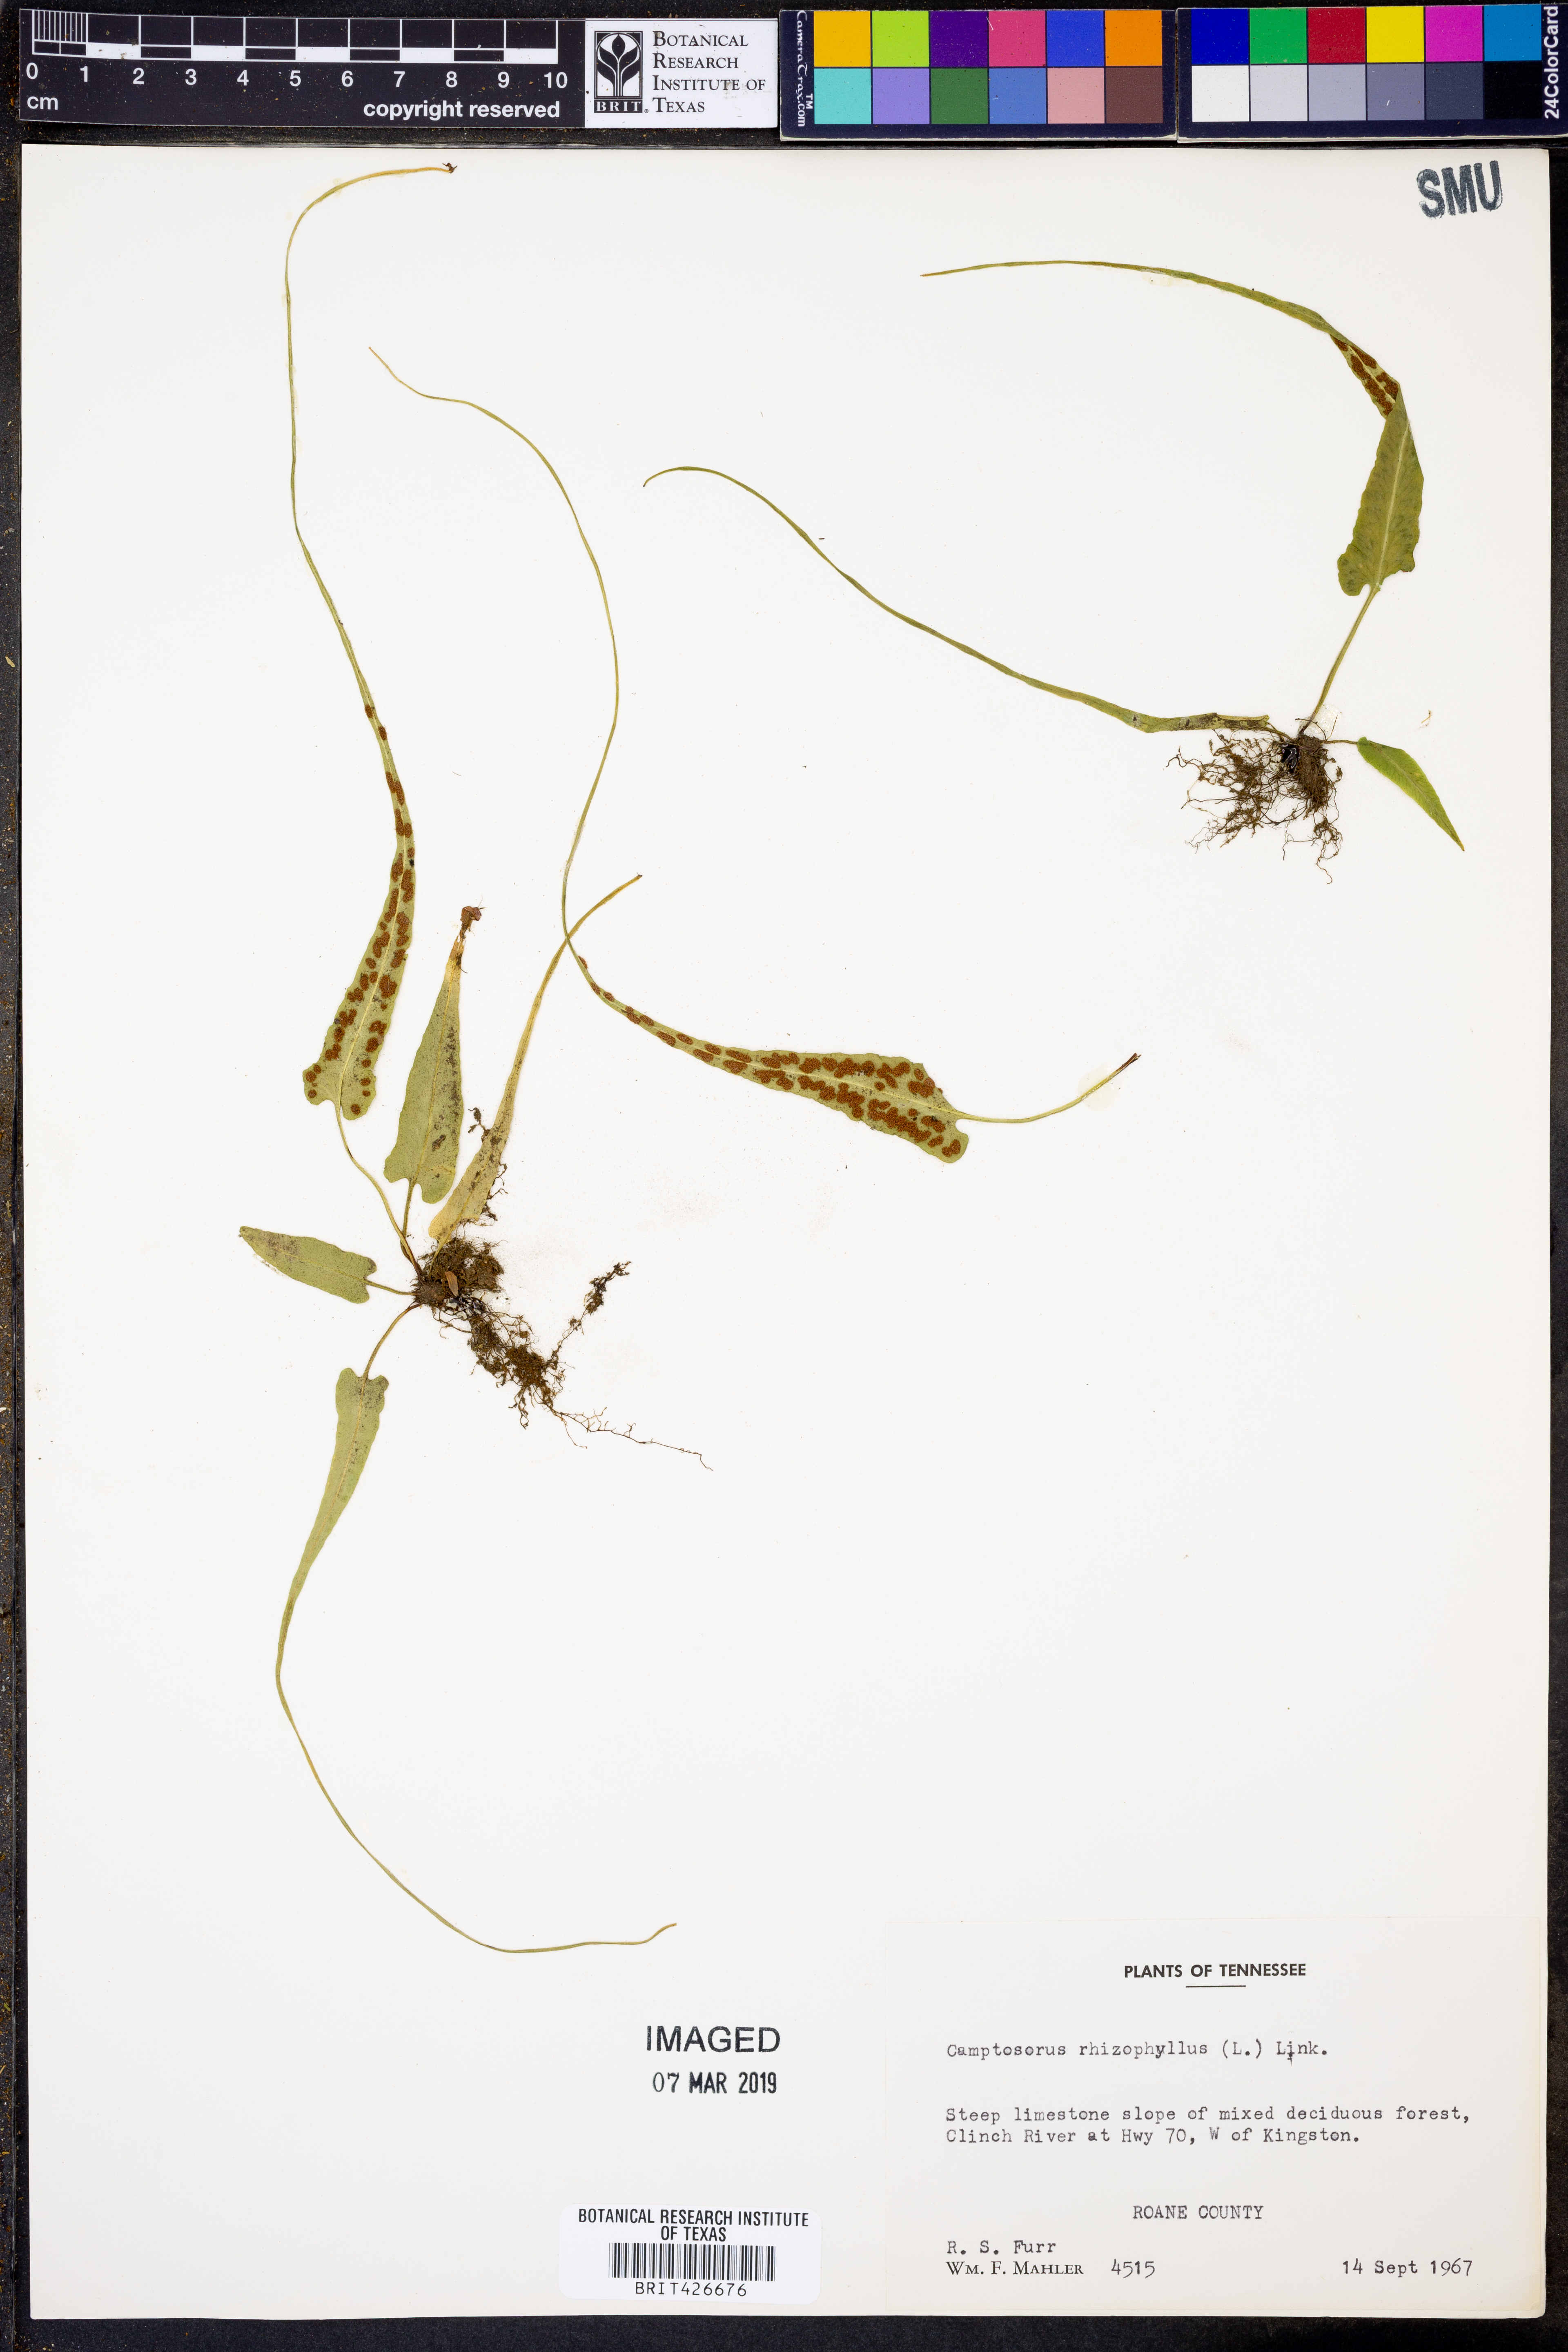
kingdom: Plantae
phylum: Tracheophyta
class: Polypodiopsida
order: Polypodiales
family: Aspleniaceae
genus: Asplenium
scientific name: Asplenium rhizophyllum
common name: Walking fern
